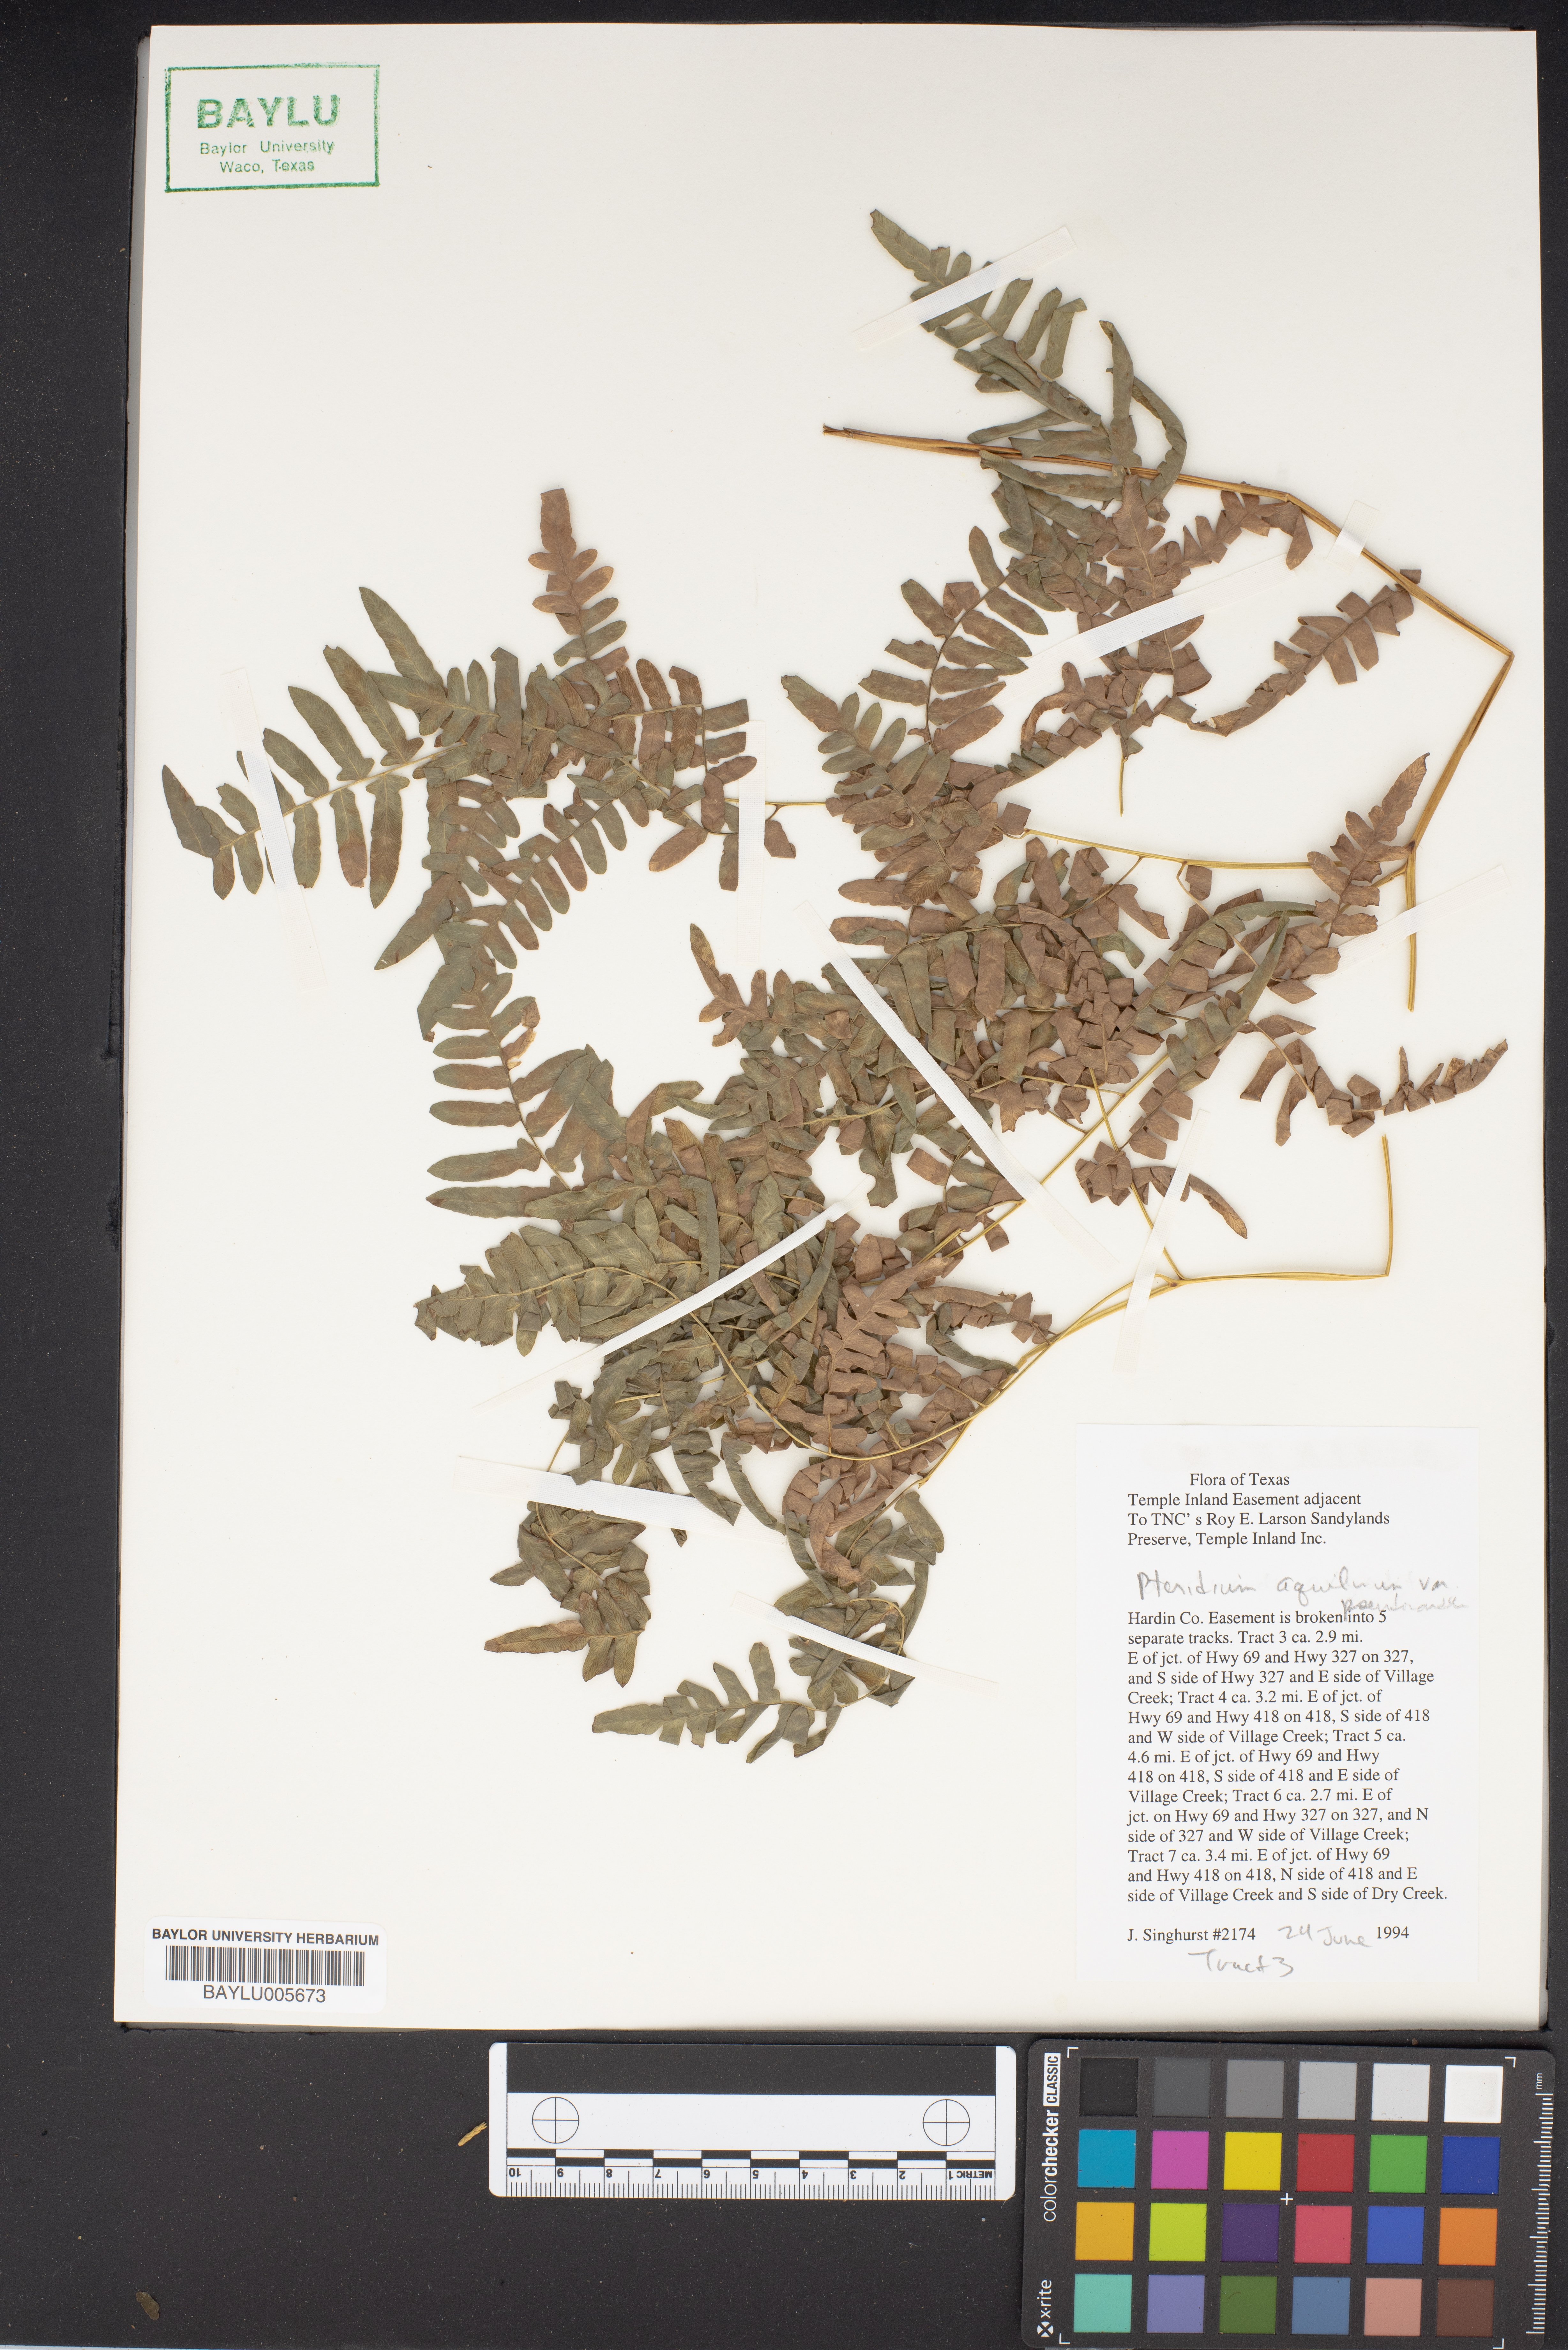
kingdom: Plantae
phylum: Tracheophyta
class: Polypodiopsida
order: Polypodiales
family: Dennstaedtiaceae
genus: Pteridium
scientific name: Pteridium aquilinum
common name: Bracken
